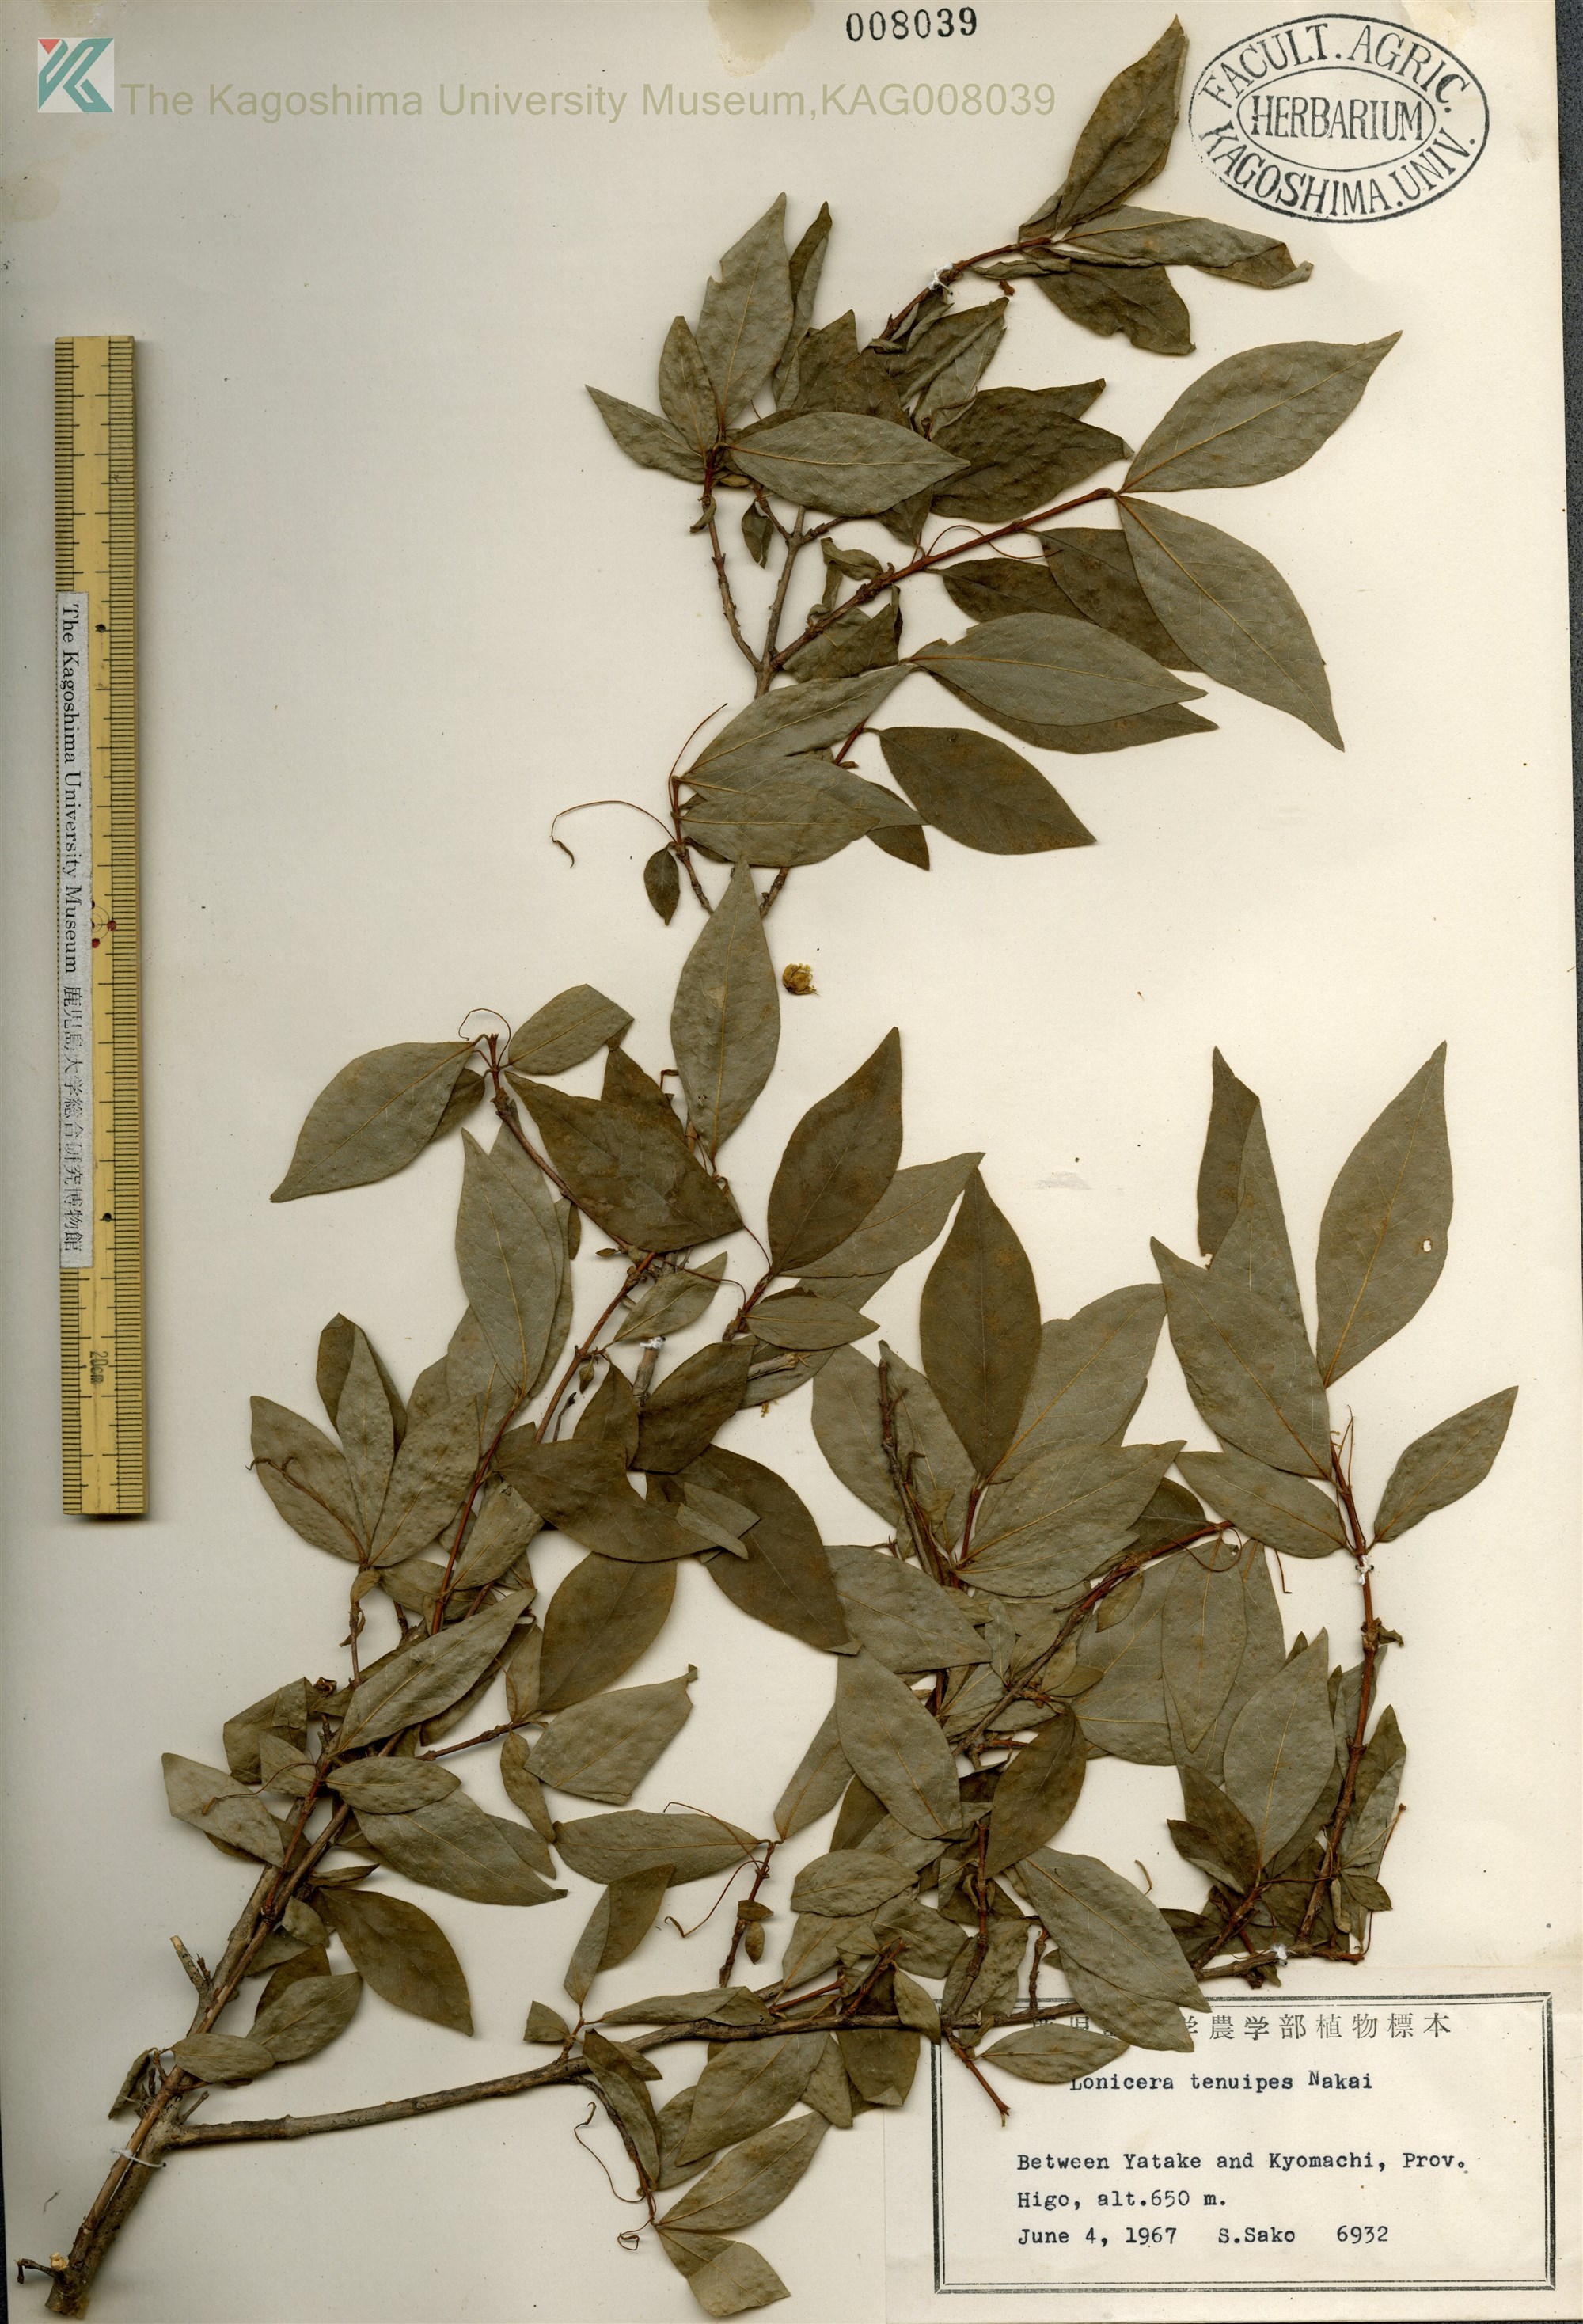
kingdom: Plantae
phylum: Tracheophyta
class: Magnoliopsida
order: Dipsacales
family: Caprifoliaceae
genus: Lonicera
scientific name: Lonicera gracilipes
